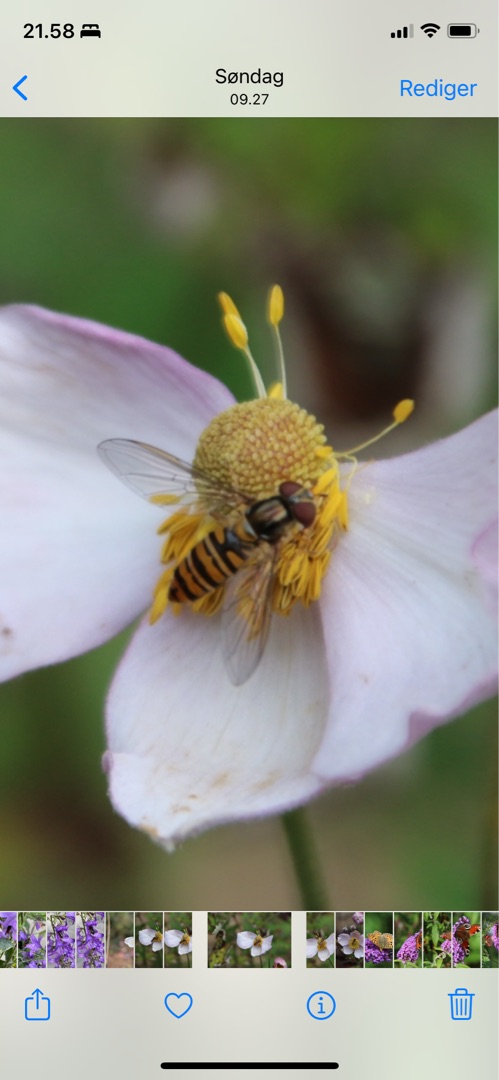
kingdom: Animalia
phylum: Arthropoda
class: Insecta
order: Diptera
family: Syrphidae
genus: Episyrphus
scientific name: Episyrphus balteatus
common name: Dobbeltbåndet svirreflue
